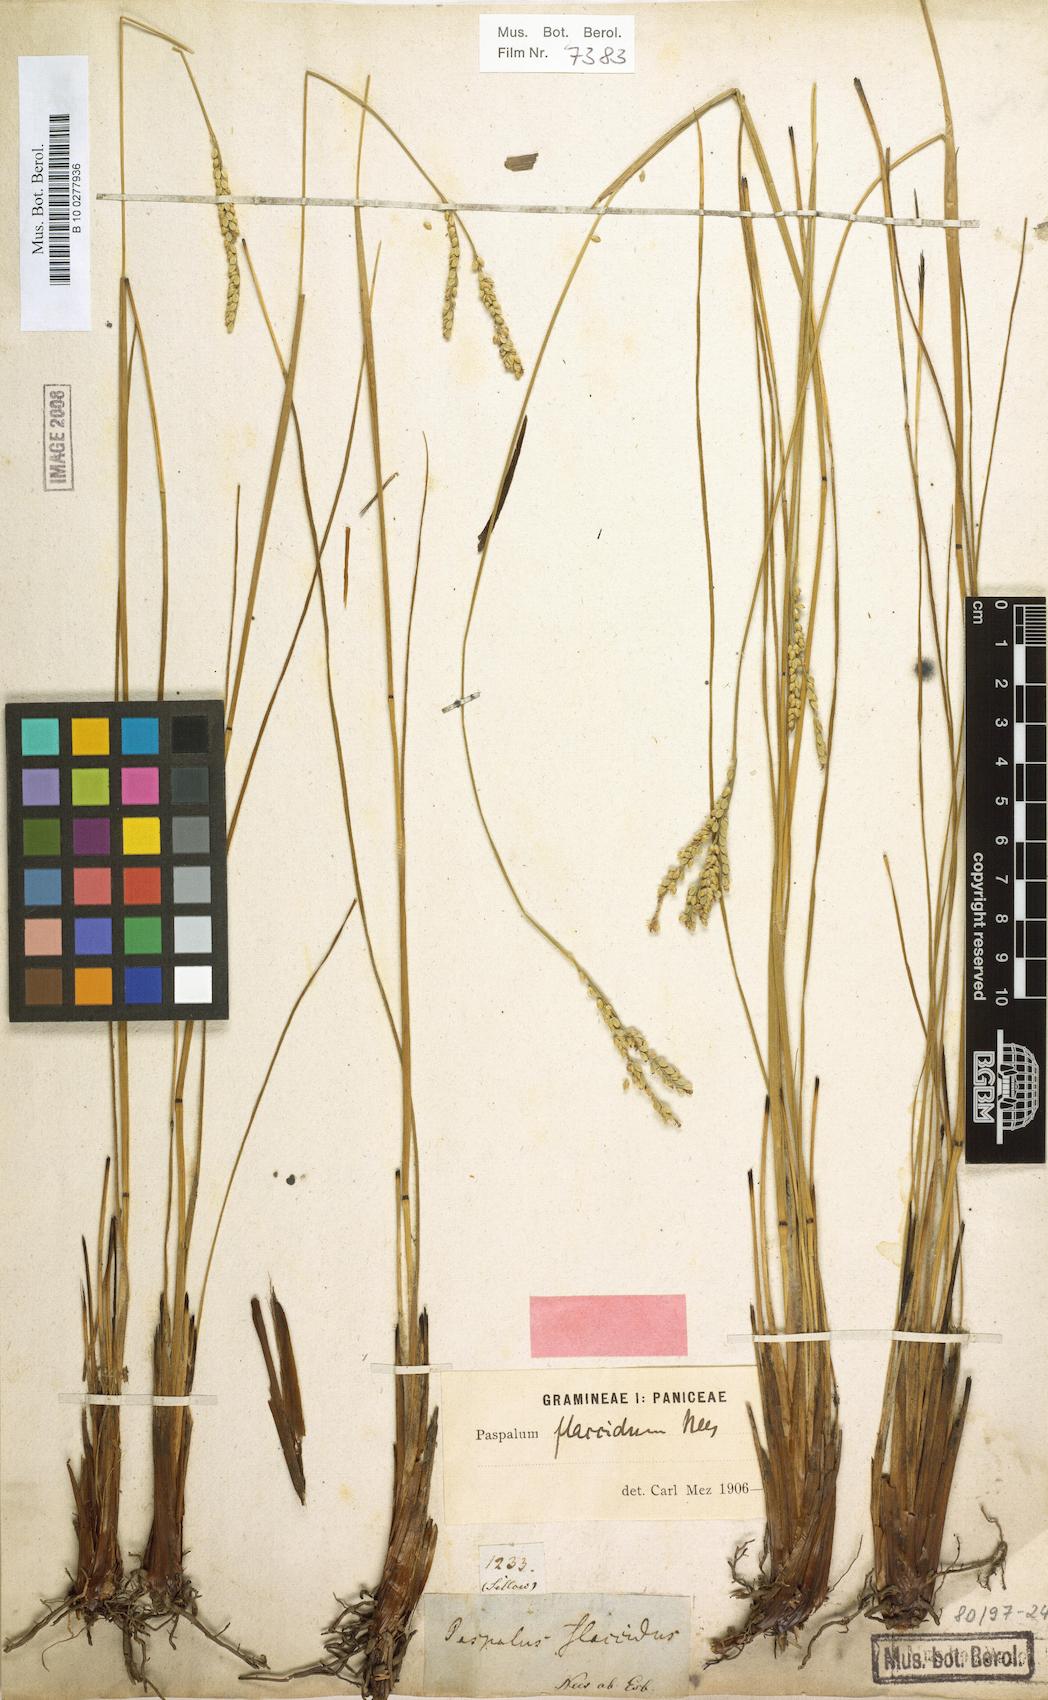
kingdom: Plantae
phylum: Tracheophyta
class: Liliopsida
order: Poales
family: Poaceae
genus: Paspalum
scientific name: Paspalum flaccidum
